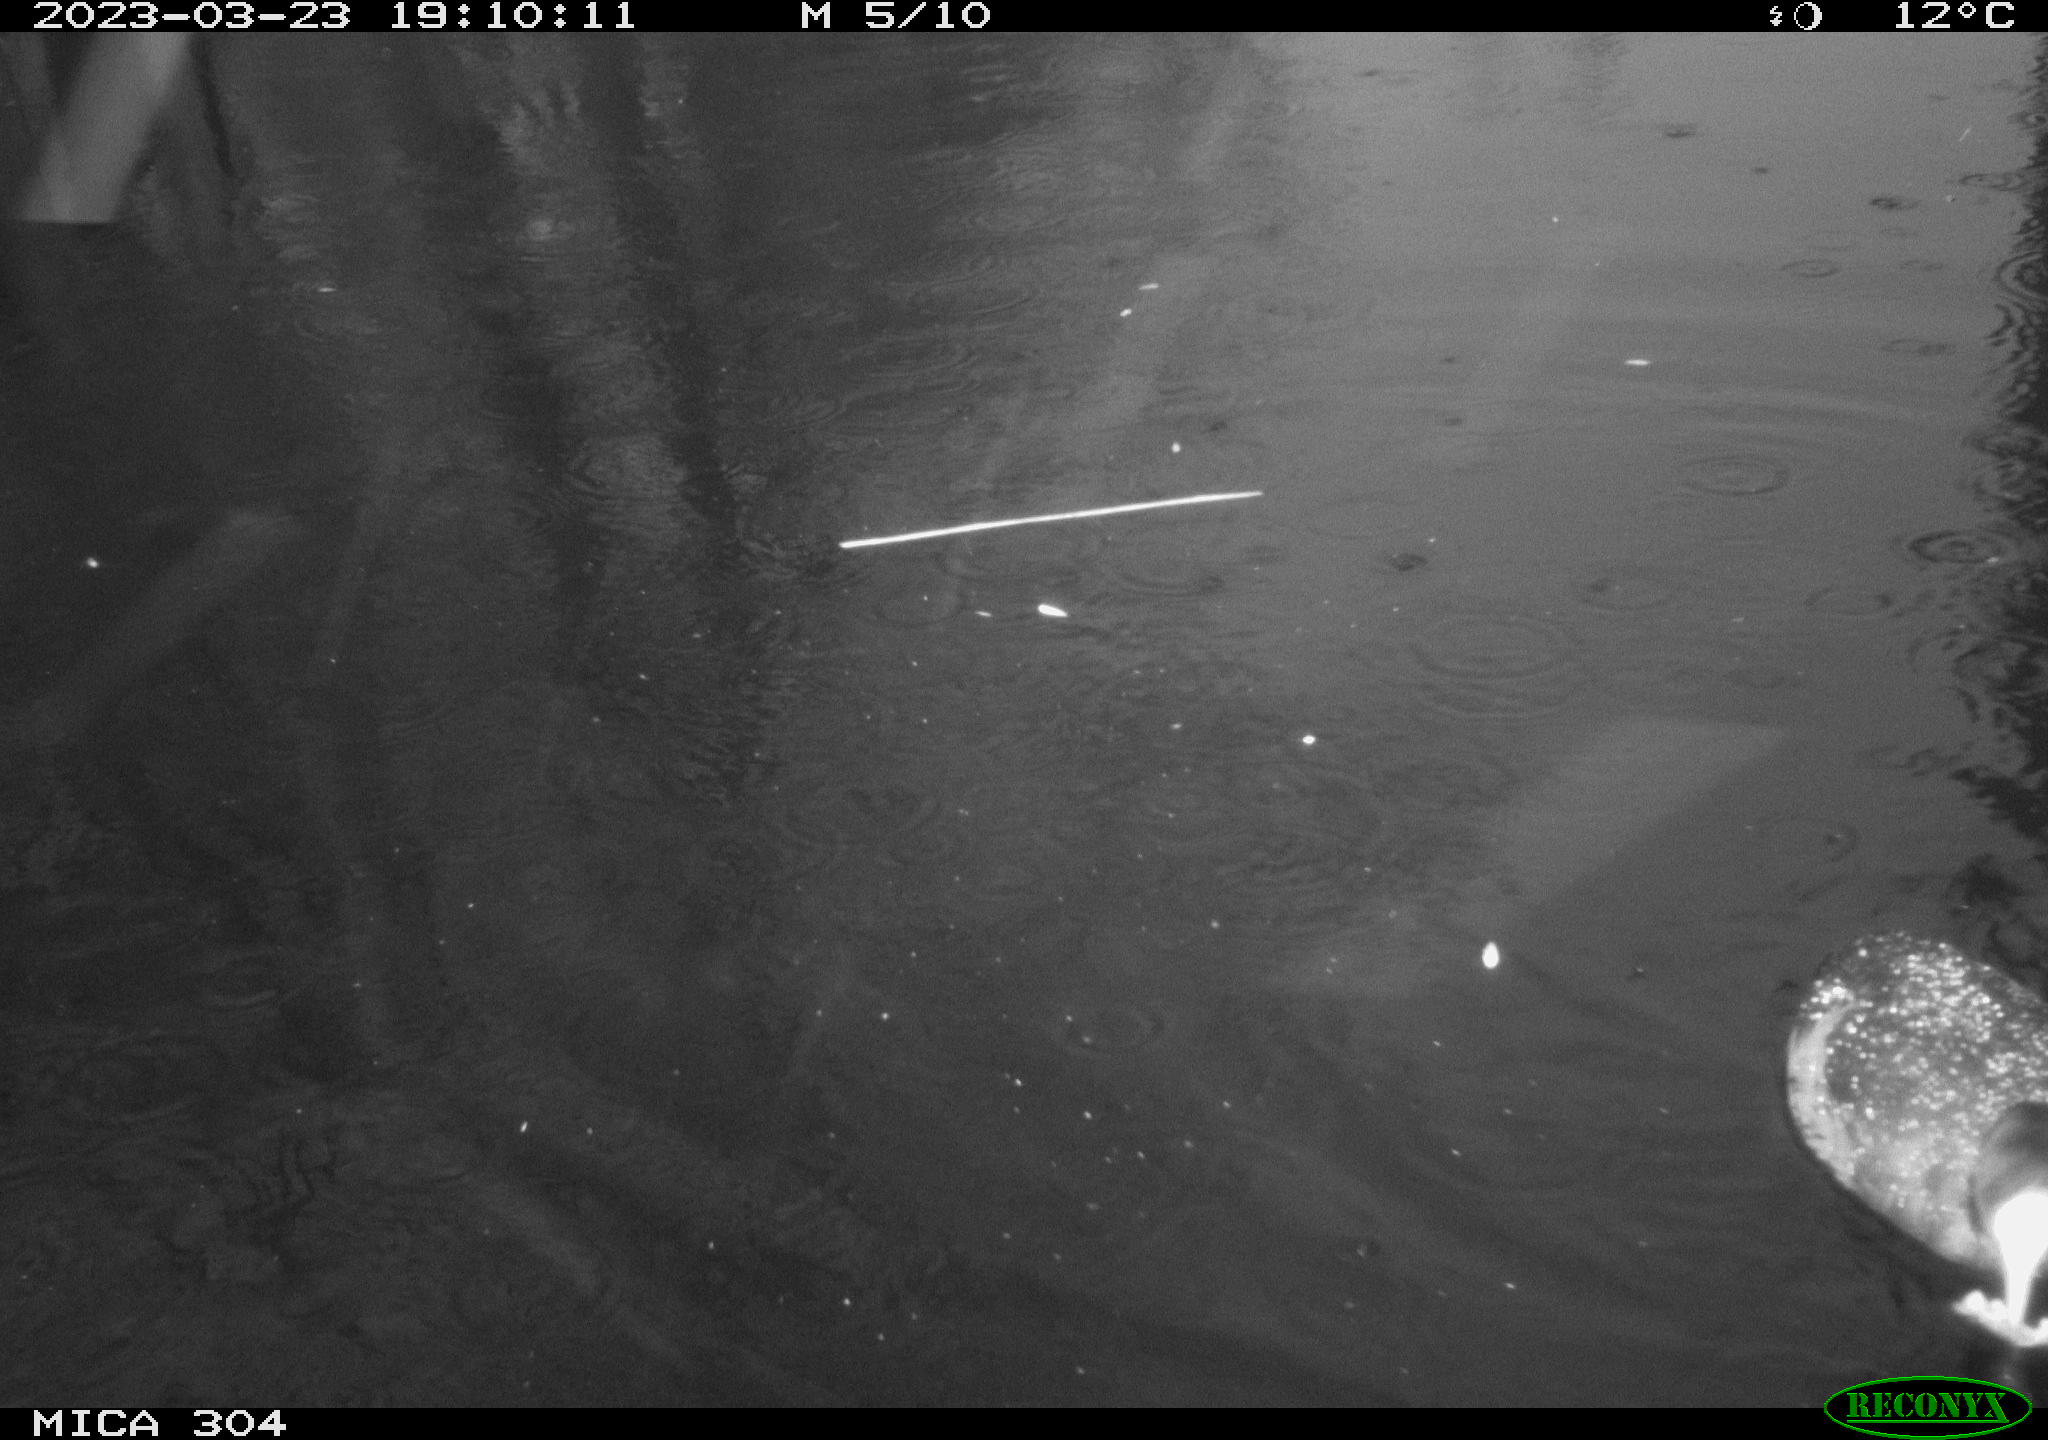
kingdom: Animalia
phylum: Chordata
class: Aves
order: Gruiformes
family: Rallidae
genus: Fulica
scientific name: Fulica atra
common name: Eurasian coot
